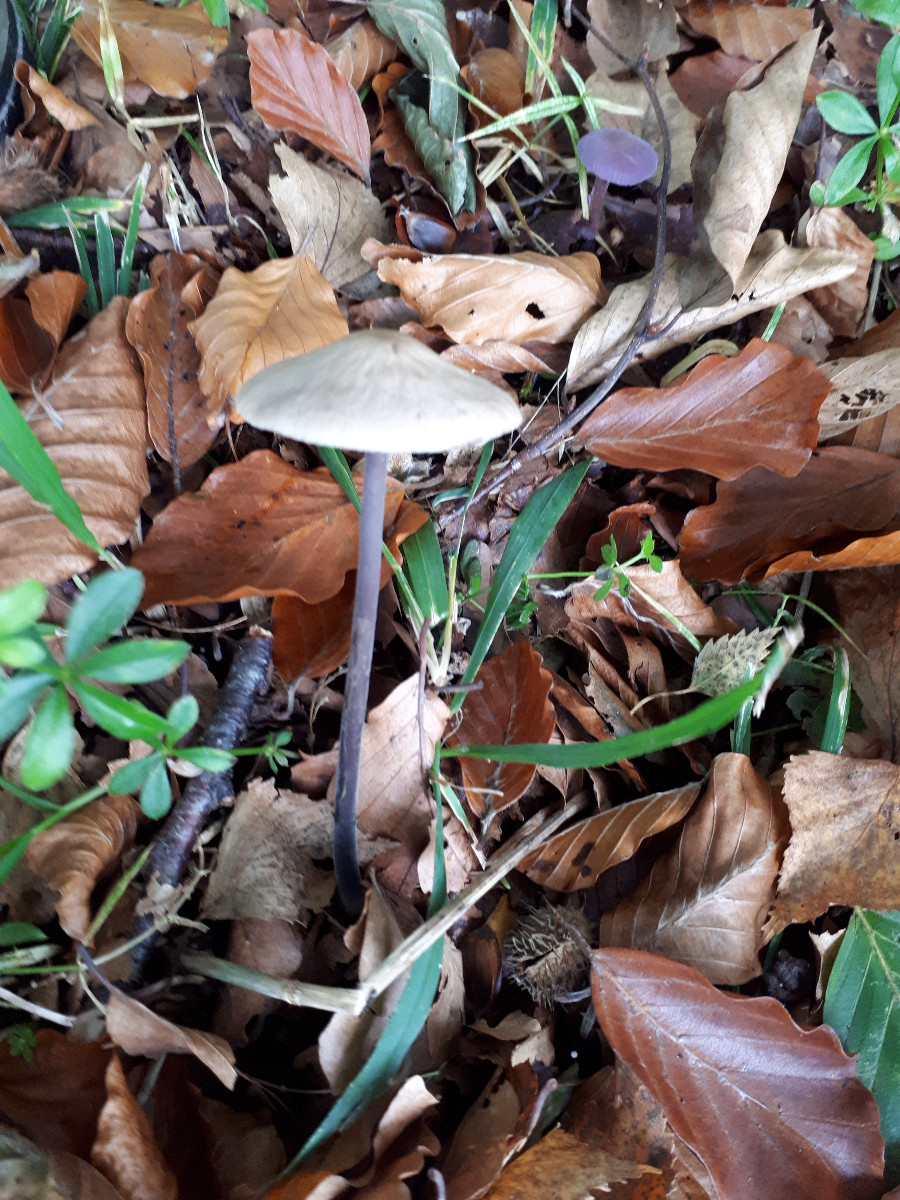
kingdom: Fungi
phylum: Basidiomycota
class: Agaricomycetes
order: Agaricales
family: Omphalotaceae
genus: Mycetinis
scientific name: Mycetinis alliaceus
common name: stor løghat
